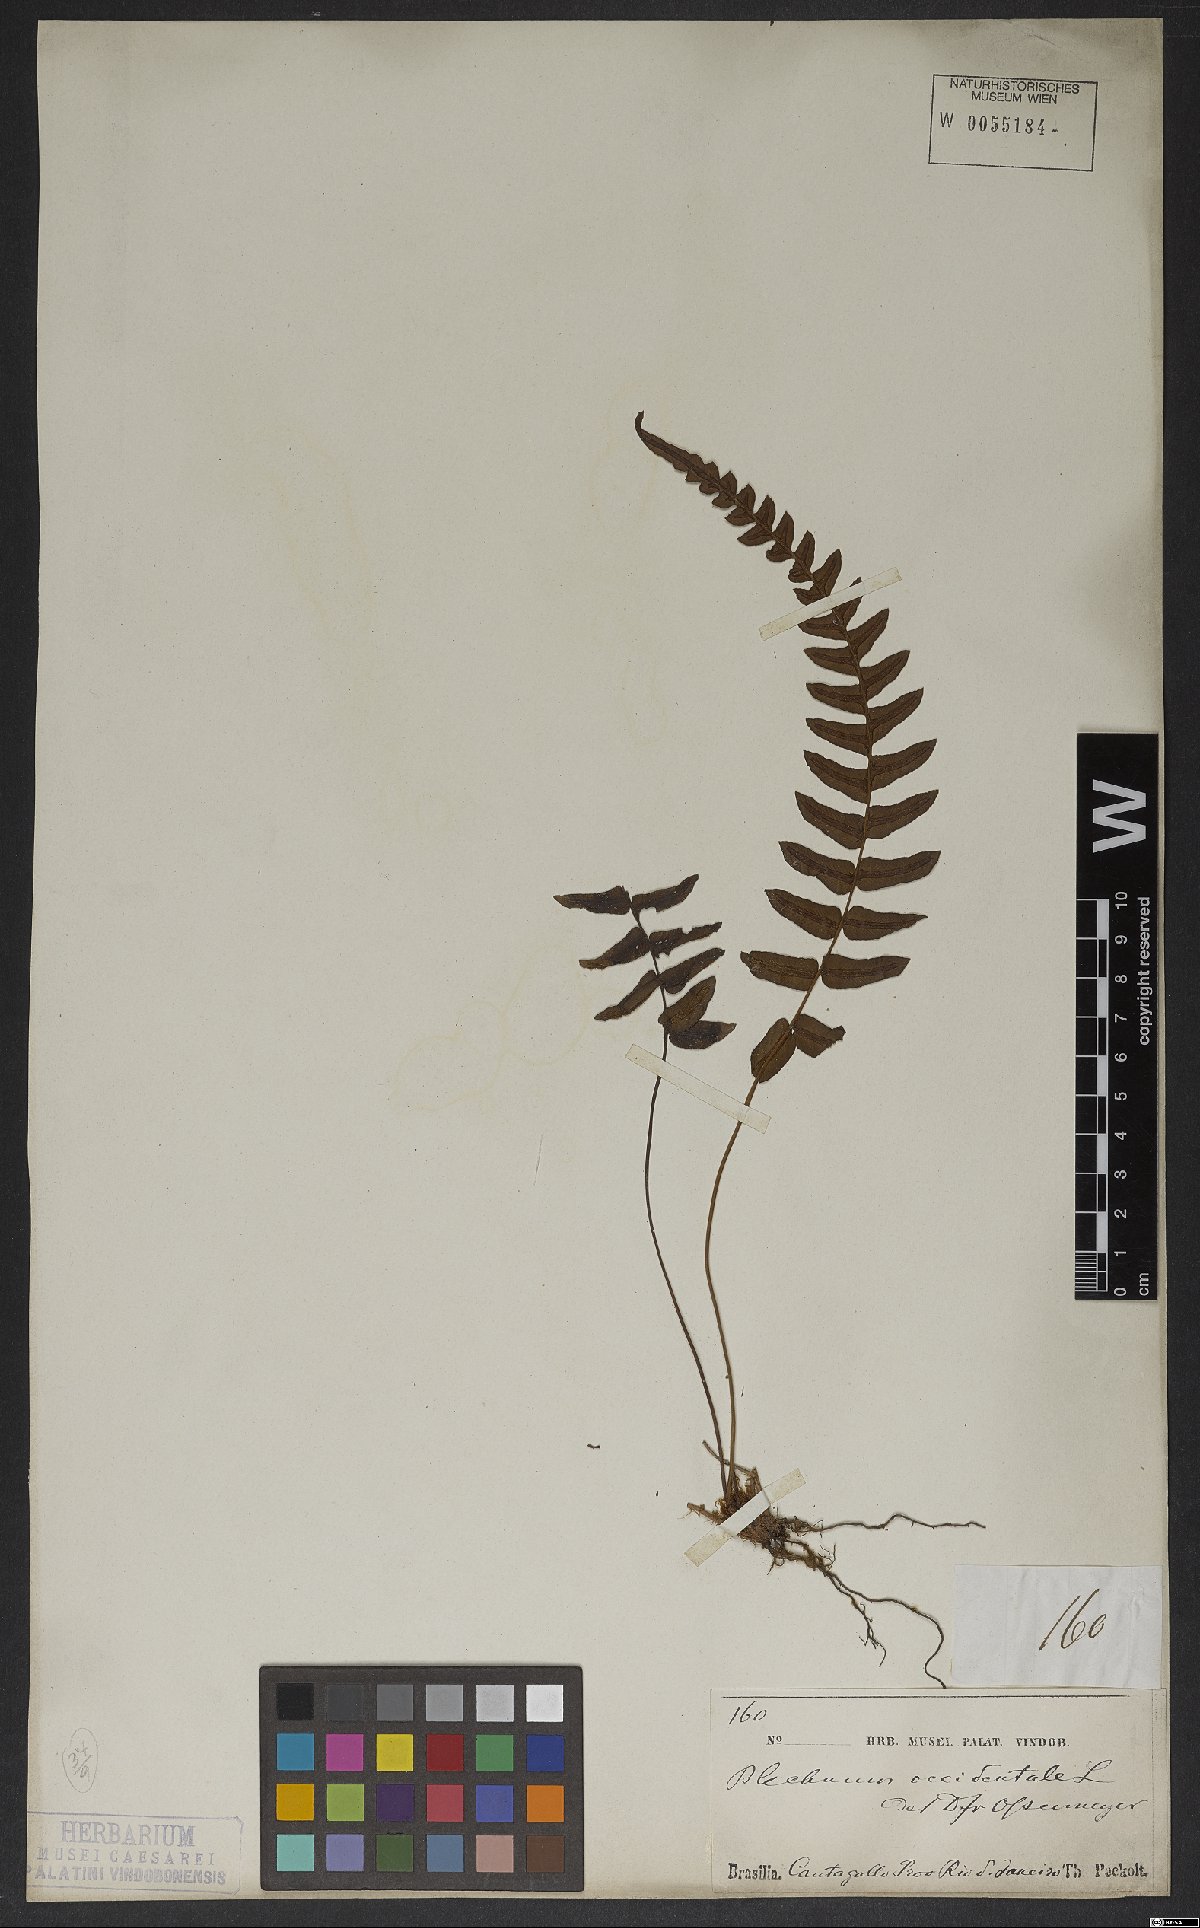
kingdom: Plantae
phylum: Tracheophyta
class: Polypodiopsida
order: Polypodiales
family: Blechnaceae
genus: Blechnum
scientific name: Blechnum occidentale
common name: Hammock fern
